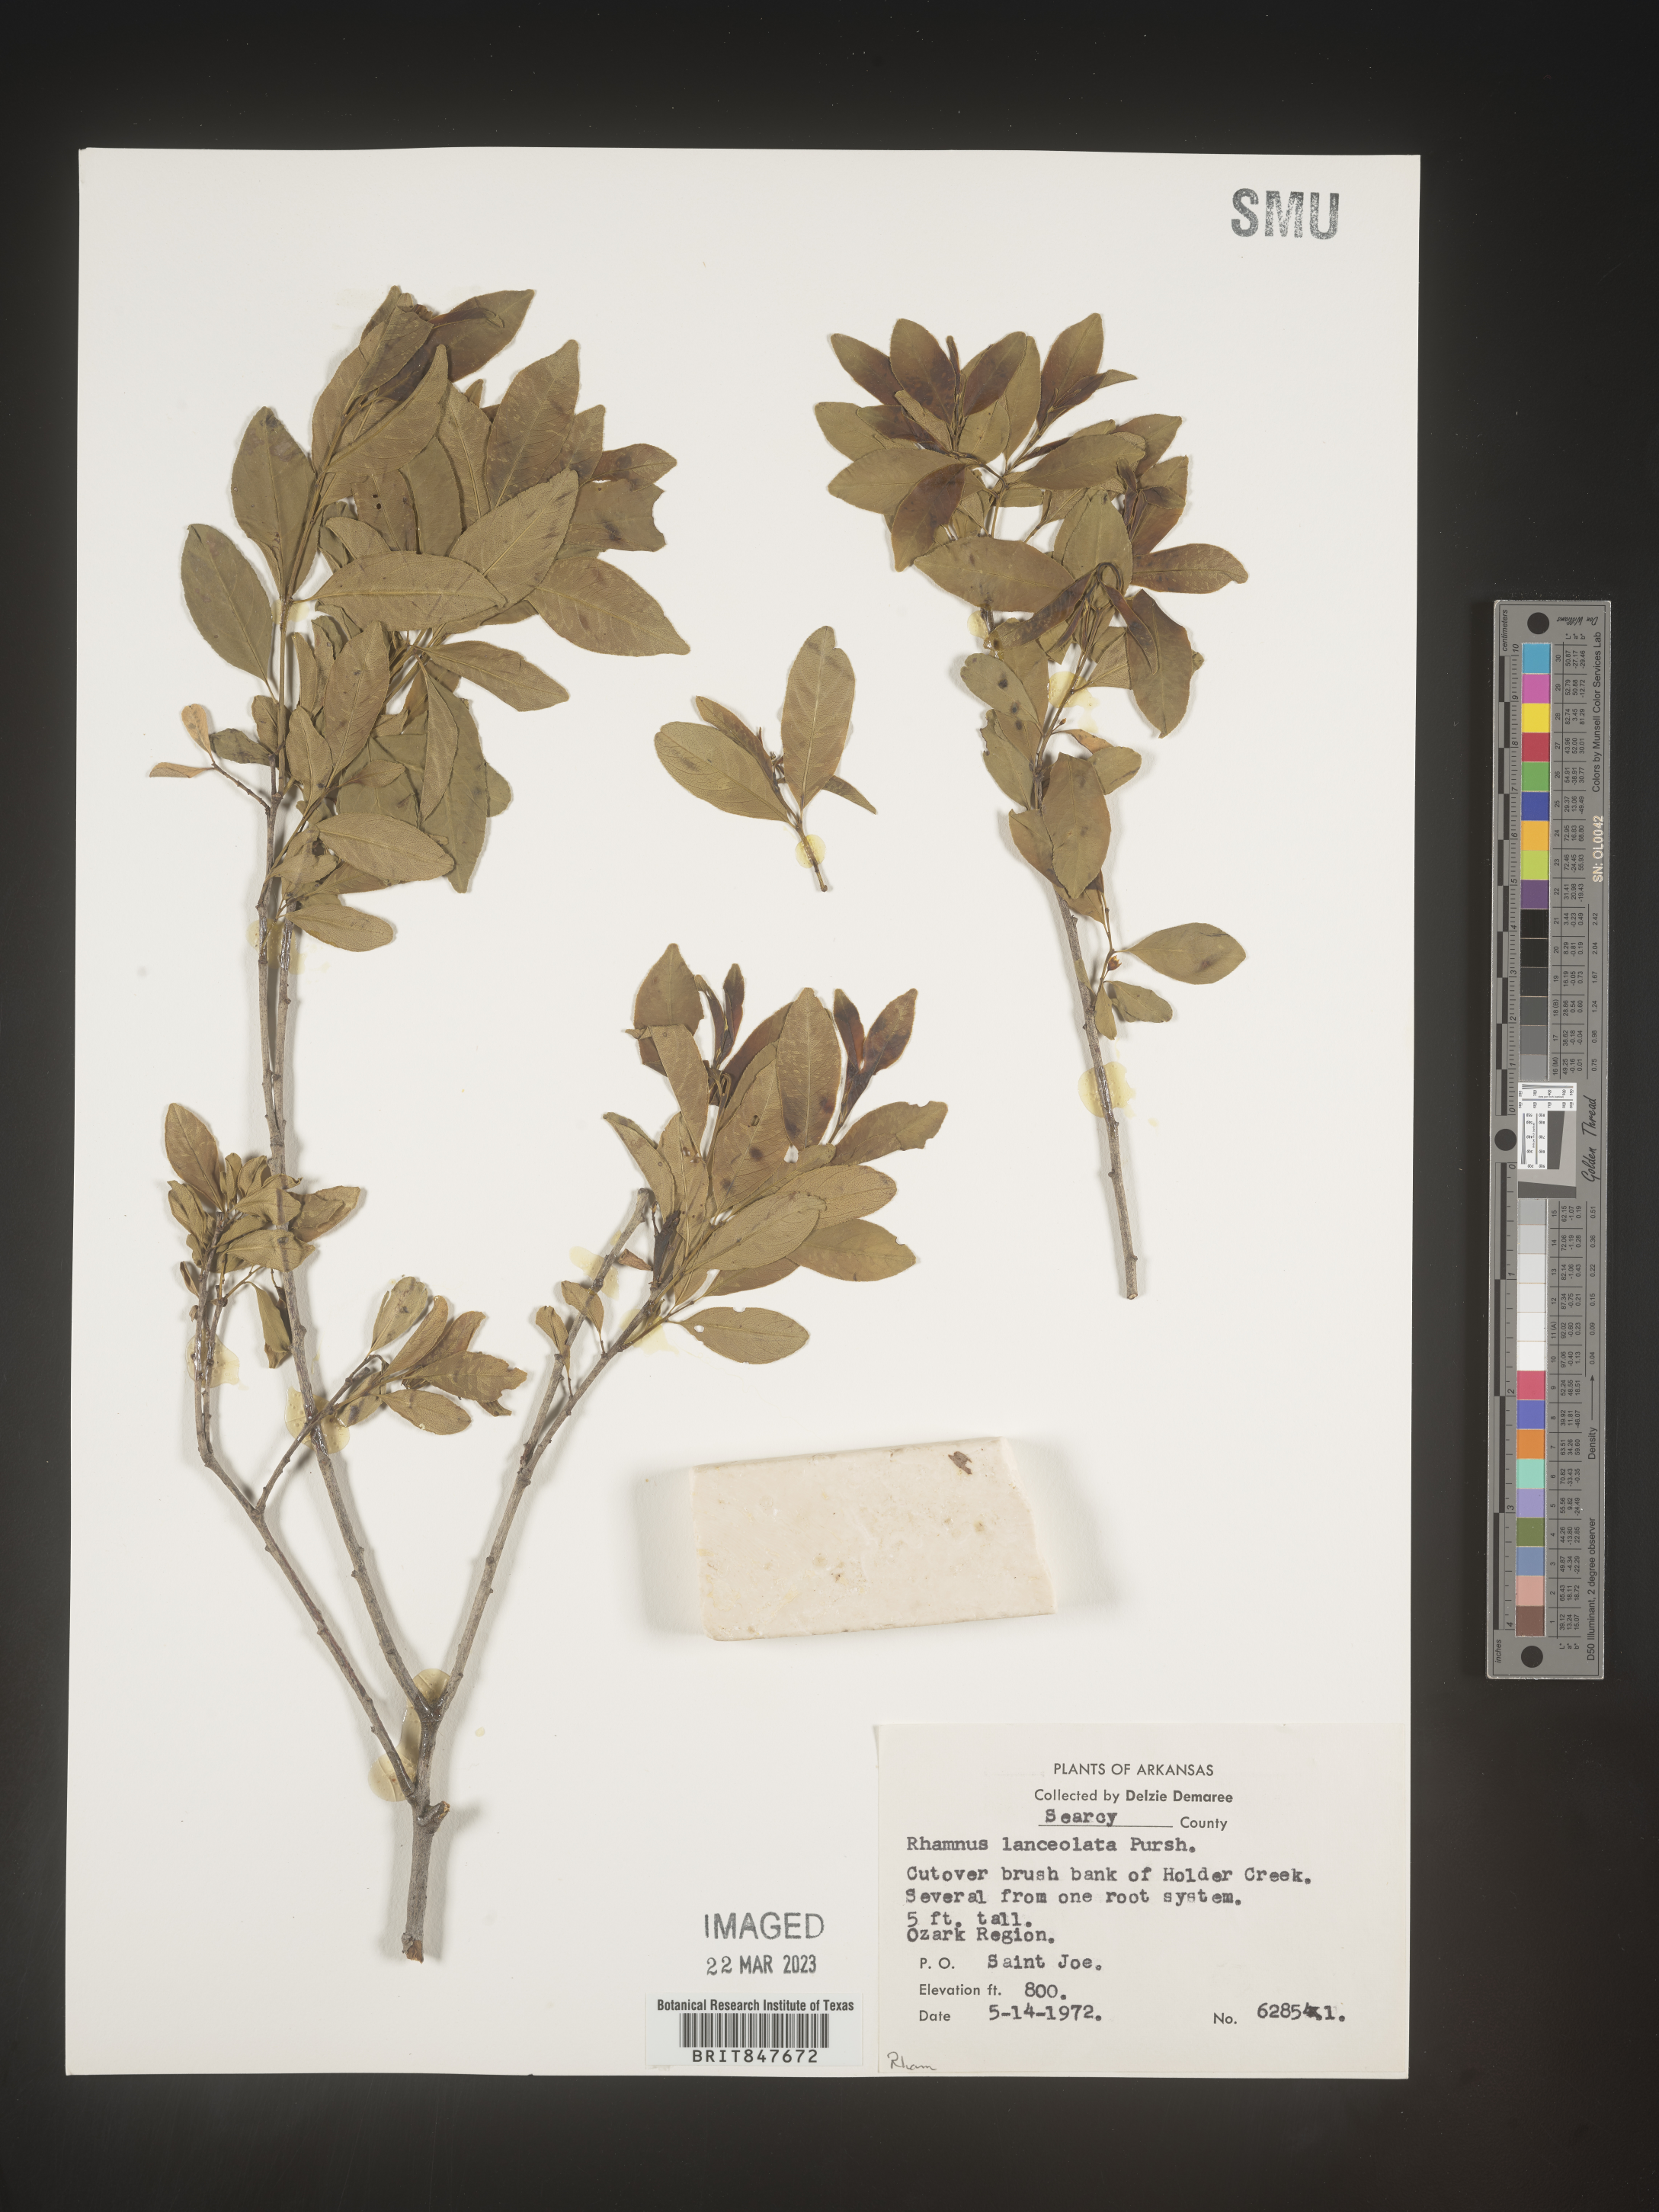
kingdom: Plantae
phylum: Tracheophyta
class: Magnoliopsida
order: Rosales
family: Rhamnaceae
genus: Endotropis
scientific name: Endotropis lanceolata
